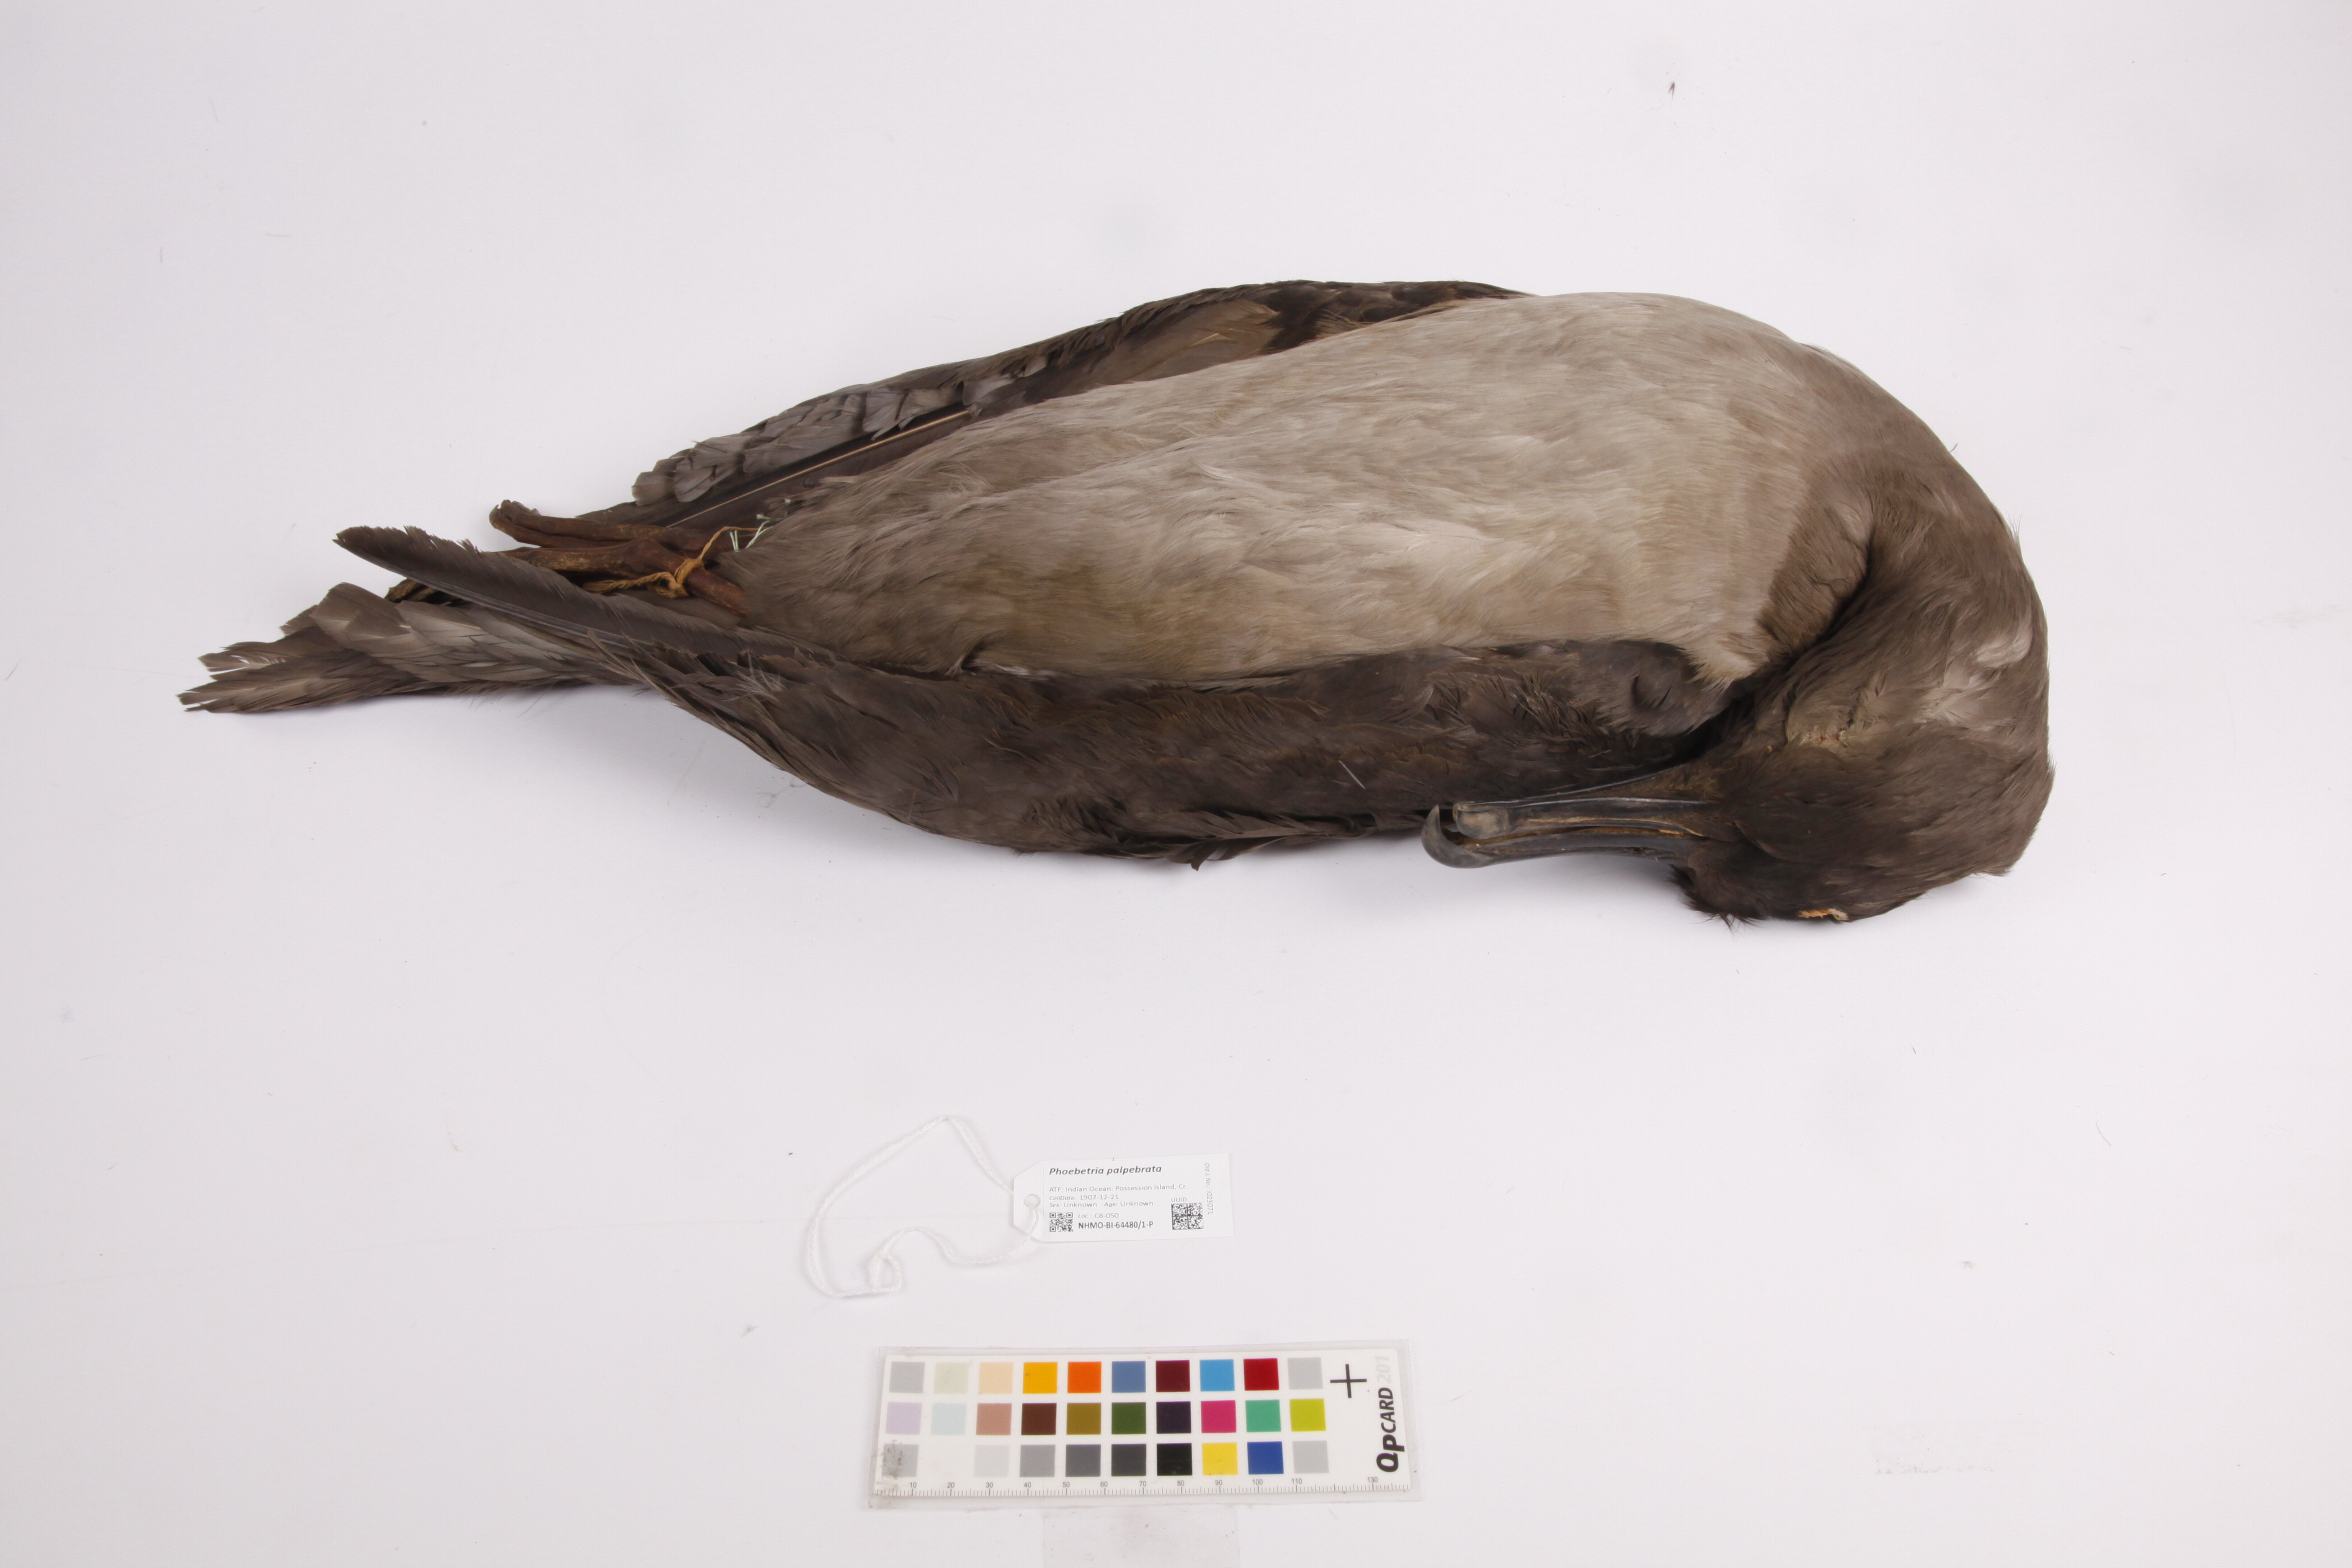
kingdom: Animalia
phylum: Chordata
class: Aves
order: Procellariiformes
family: Diomedeidae
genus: Phoebetria
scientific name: Phoebetria palpebrata
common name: Light-mantled albatross
